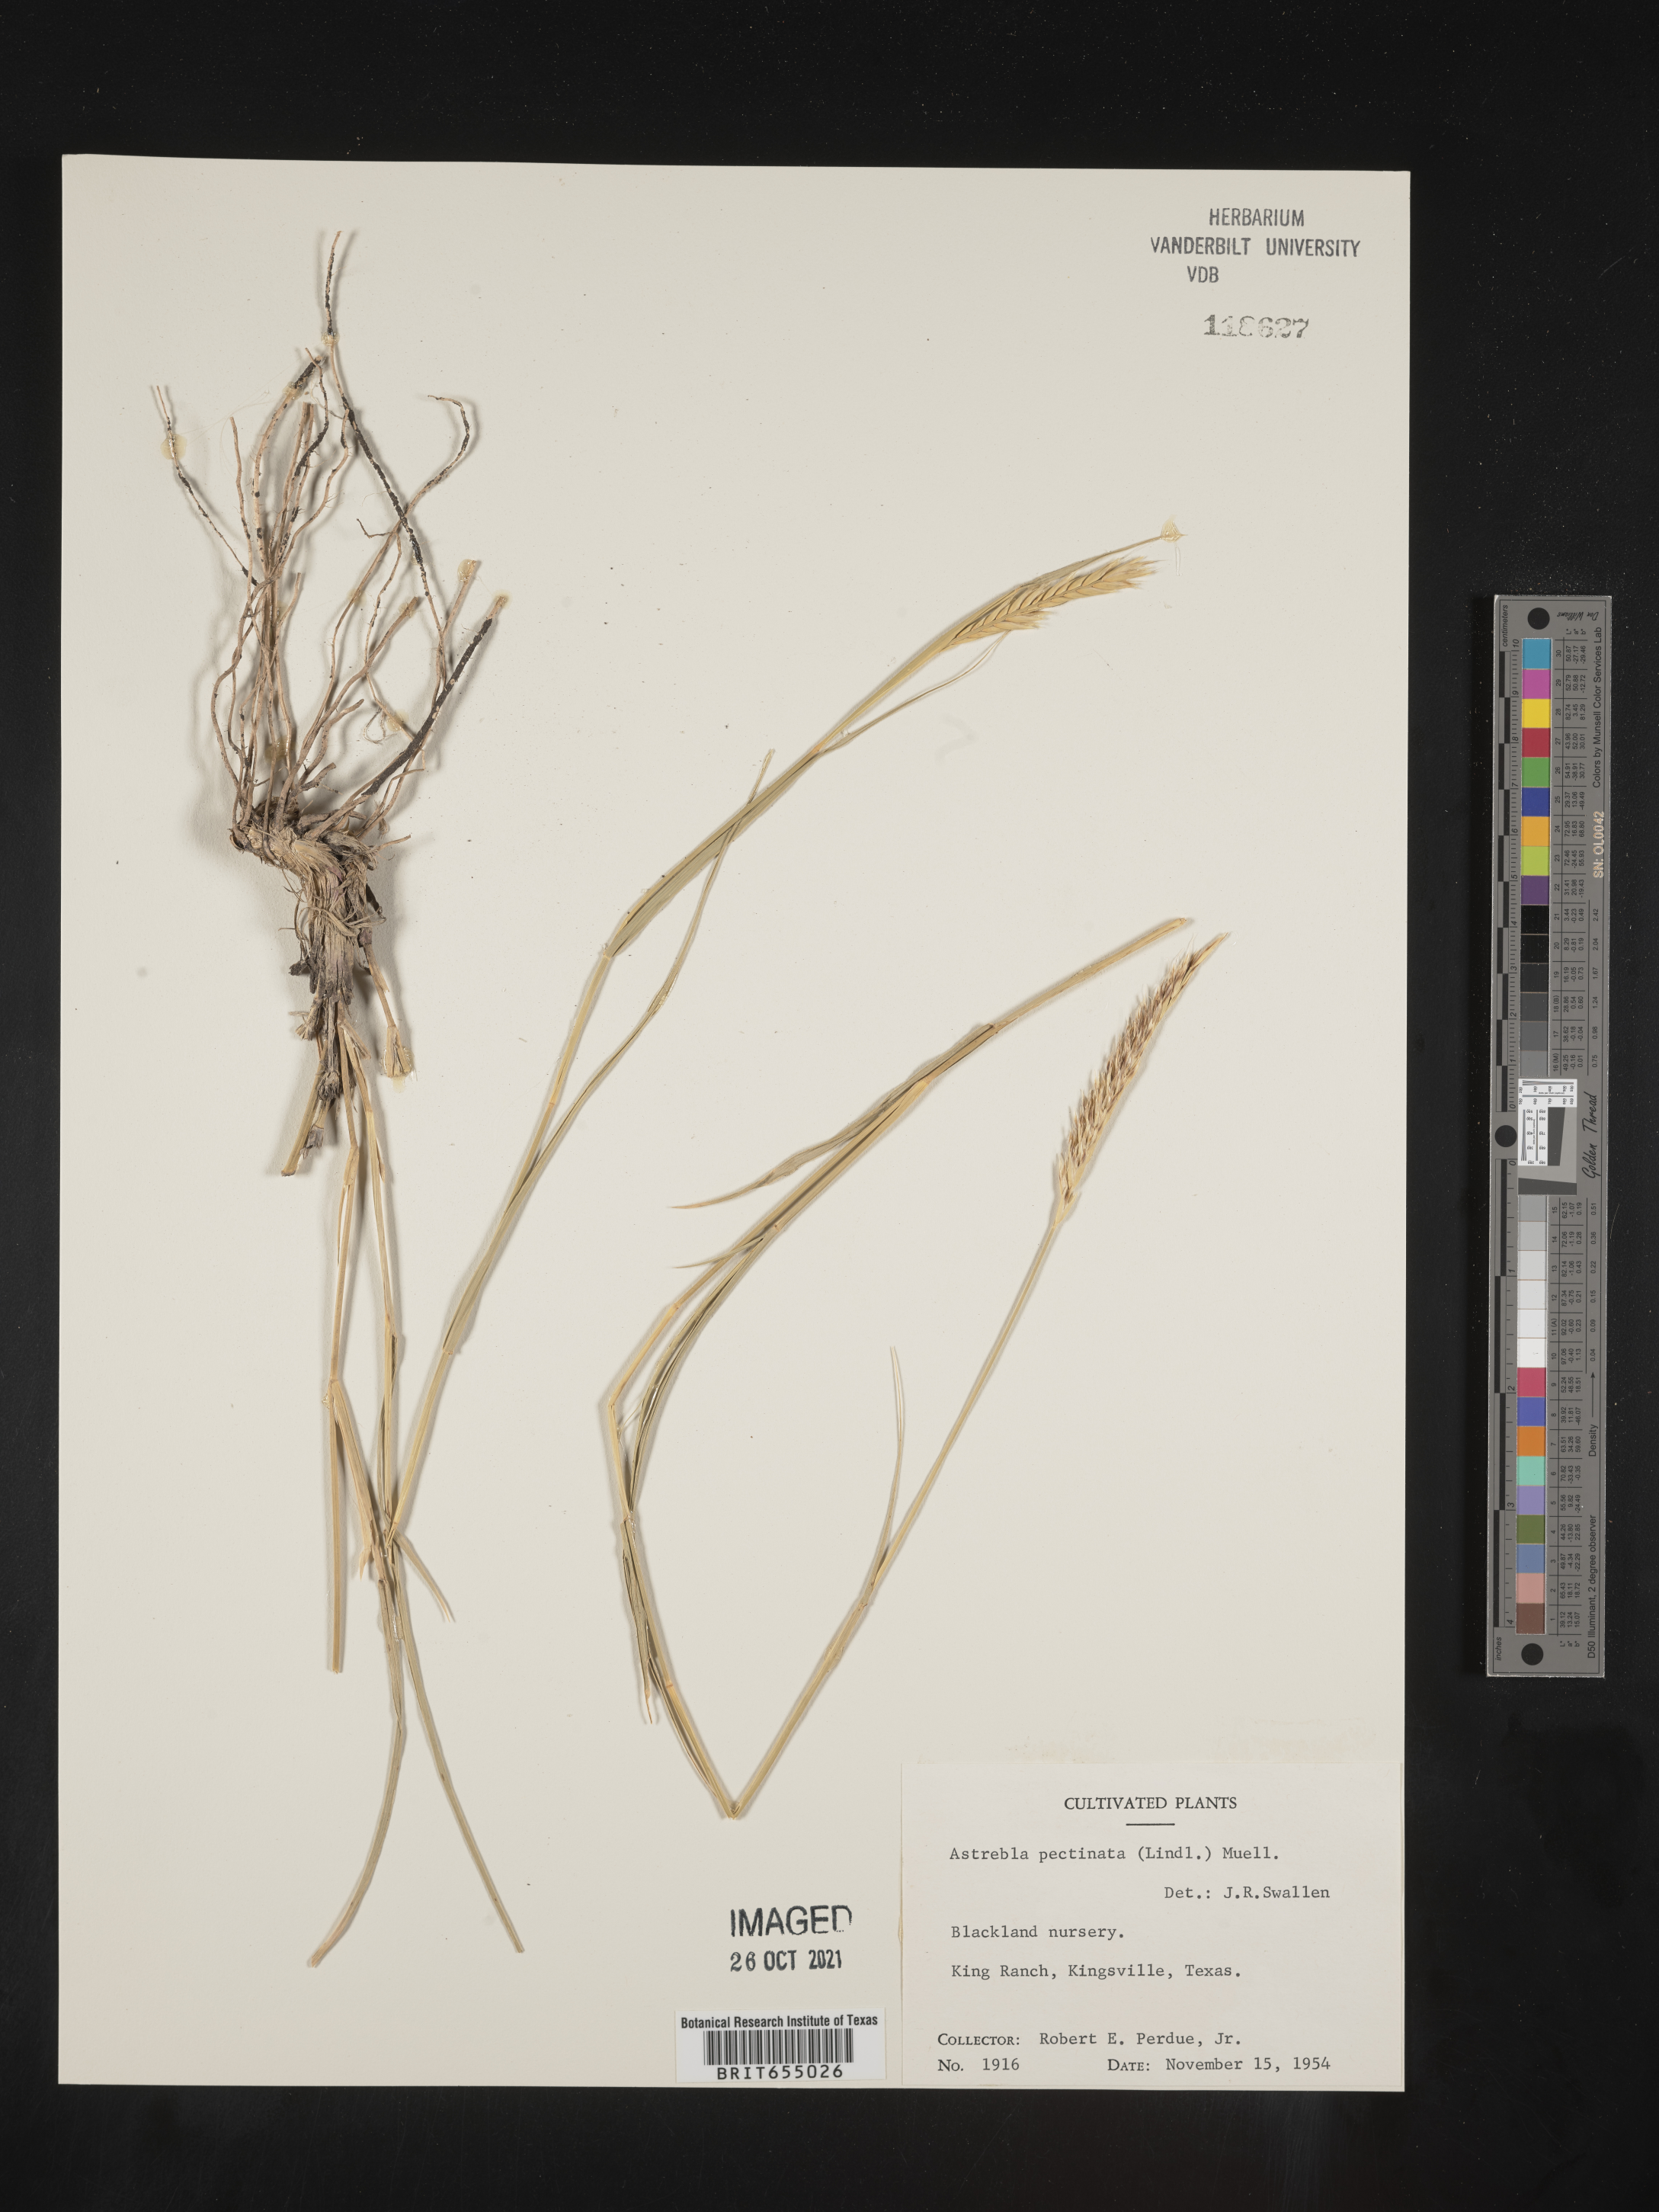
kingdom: Plantae
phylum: Tracheophyta
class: Liliopsida
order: Poales
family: Poaceae
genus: Astrebla
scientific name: Astrebla
